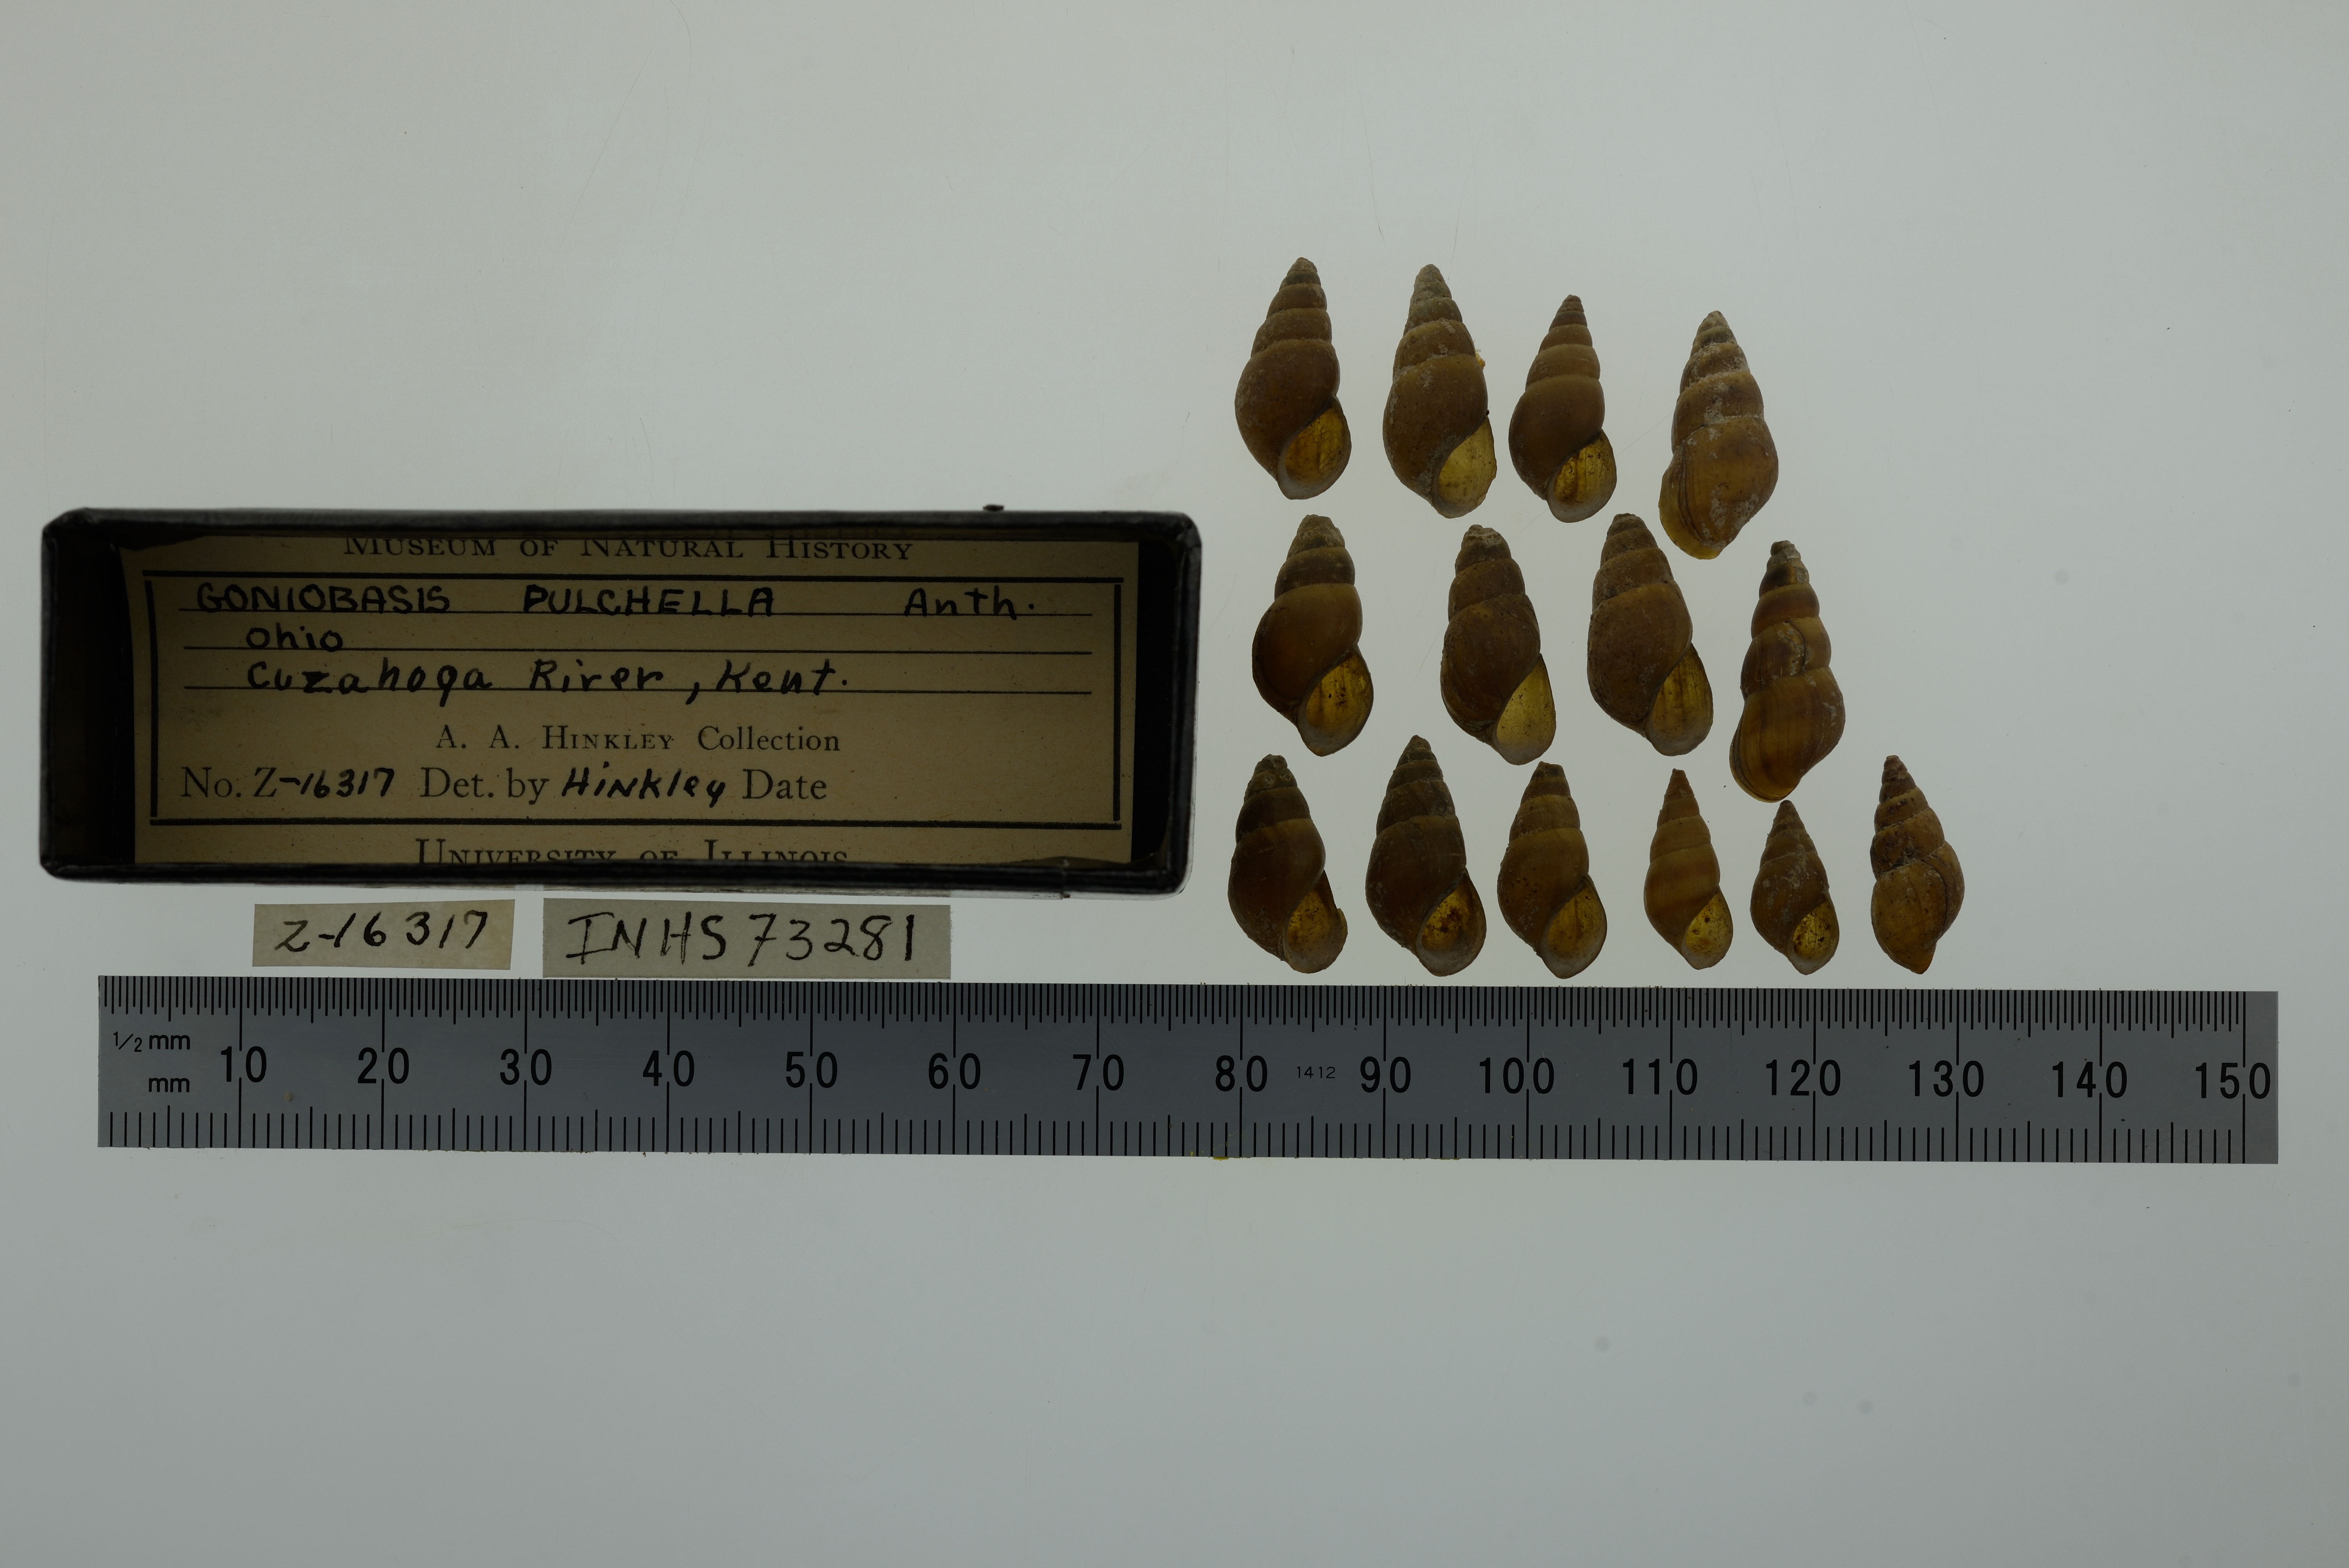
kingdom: Animalia
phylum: Mollusca
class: Gastropoda
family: Pleuroceridae
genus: Elimia
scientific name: Elimia semicarinata
